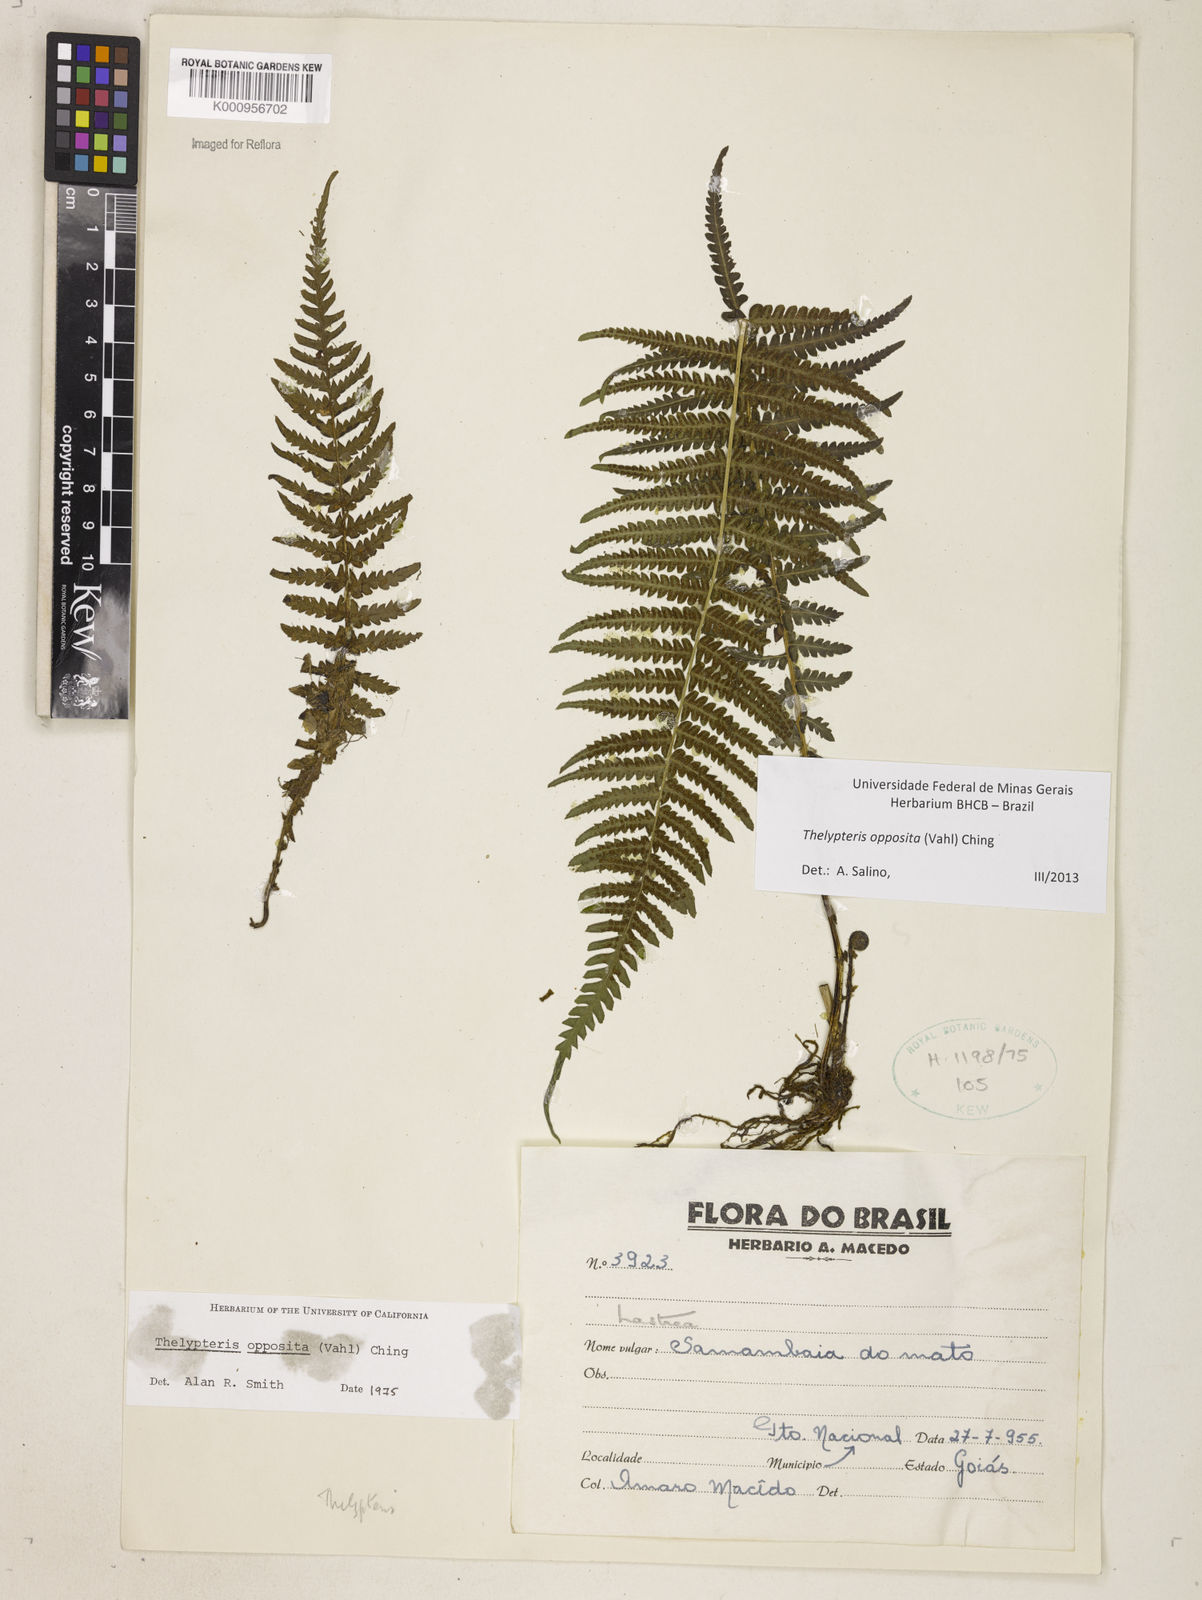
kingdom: Plantae
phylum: Tracheophyta
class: Polypodiopsida
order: Polypodiales
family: Thelypteridaceae
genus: Amauropelta
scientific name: Amauropelta opposita
